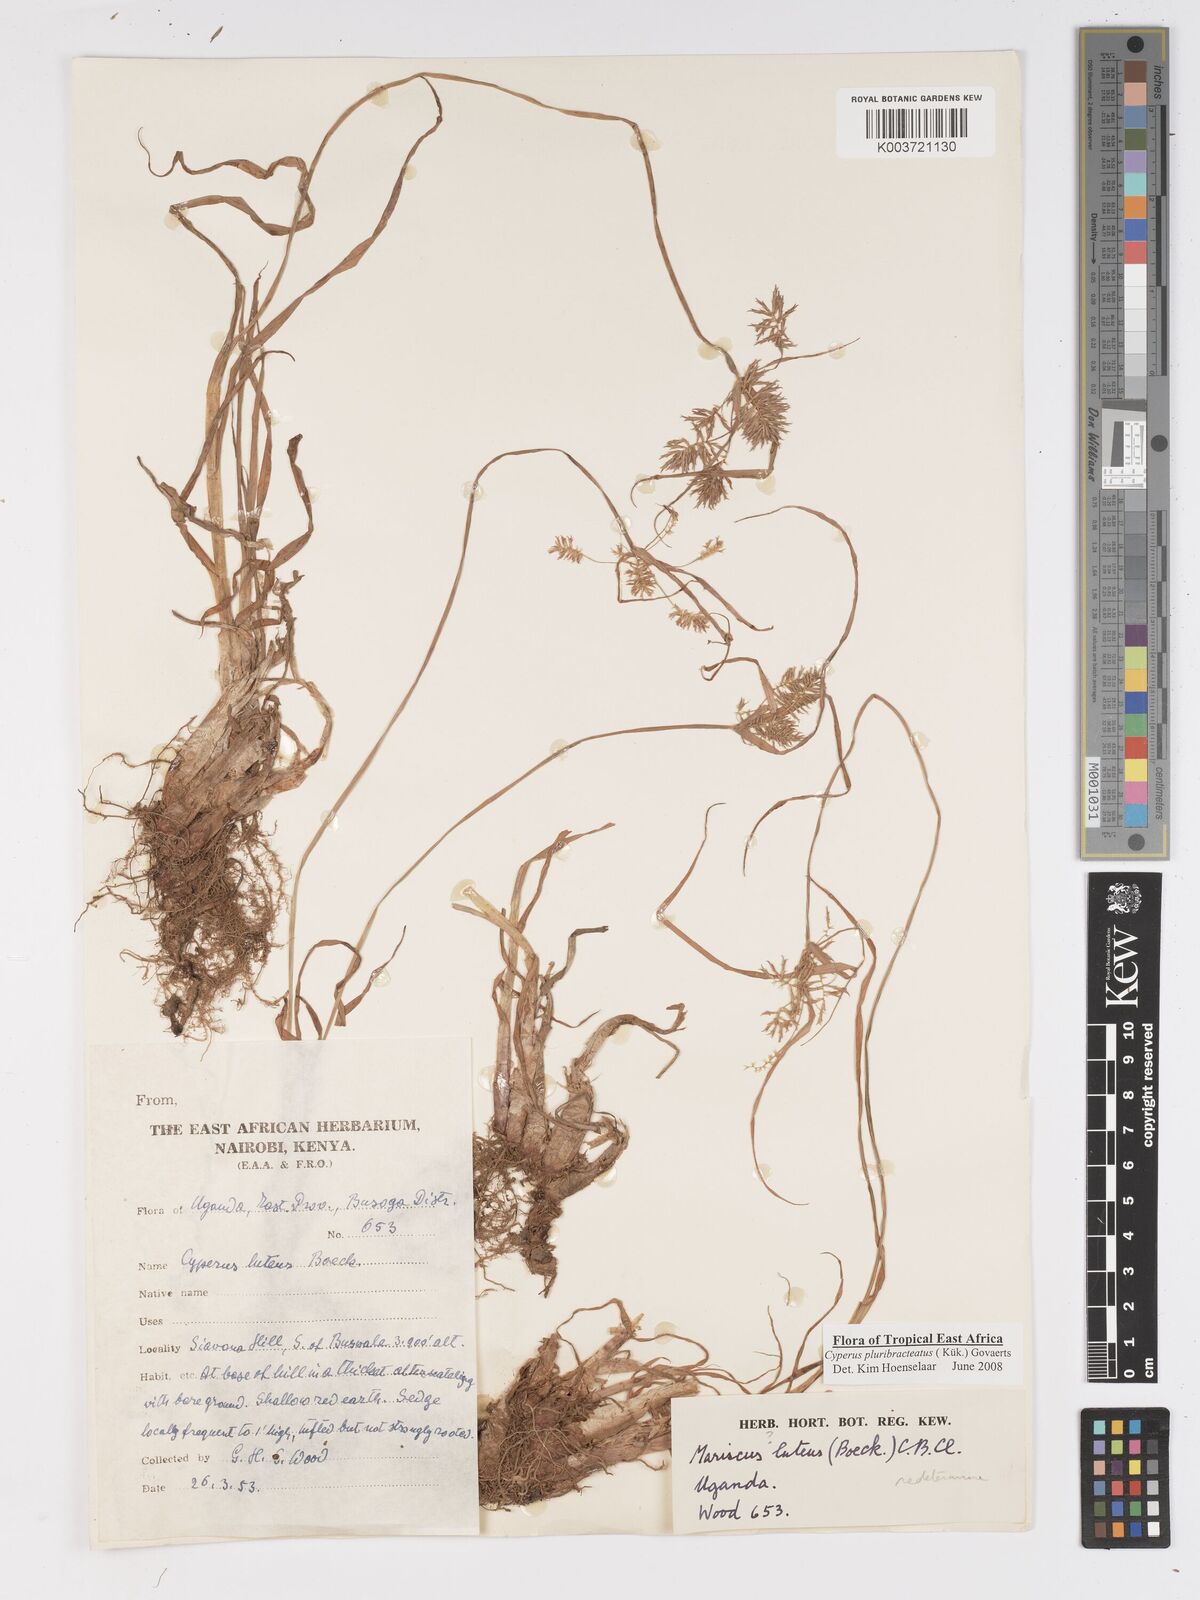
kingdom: Plantae
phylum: Tracheophyta
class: Liliopsida
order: Poales
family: Cyperaceae
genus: Cyperus
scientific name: Cyperus trigonellus
